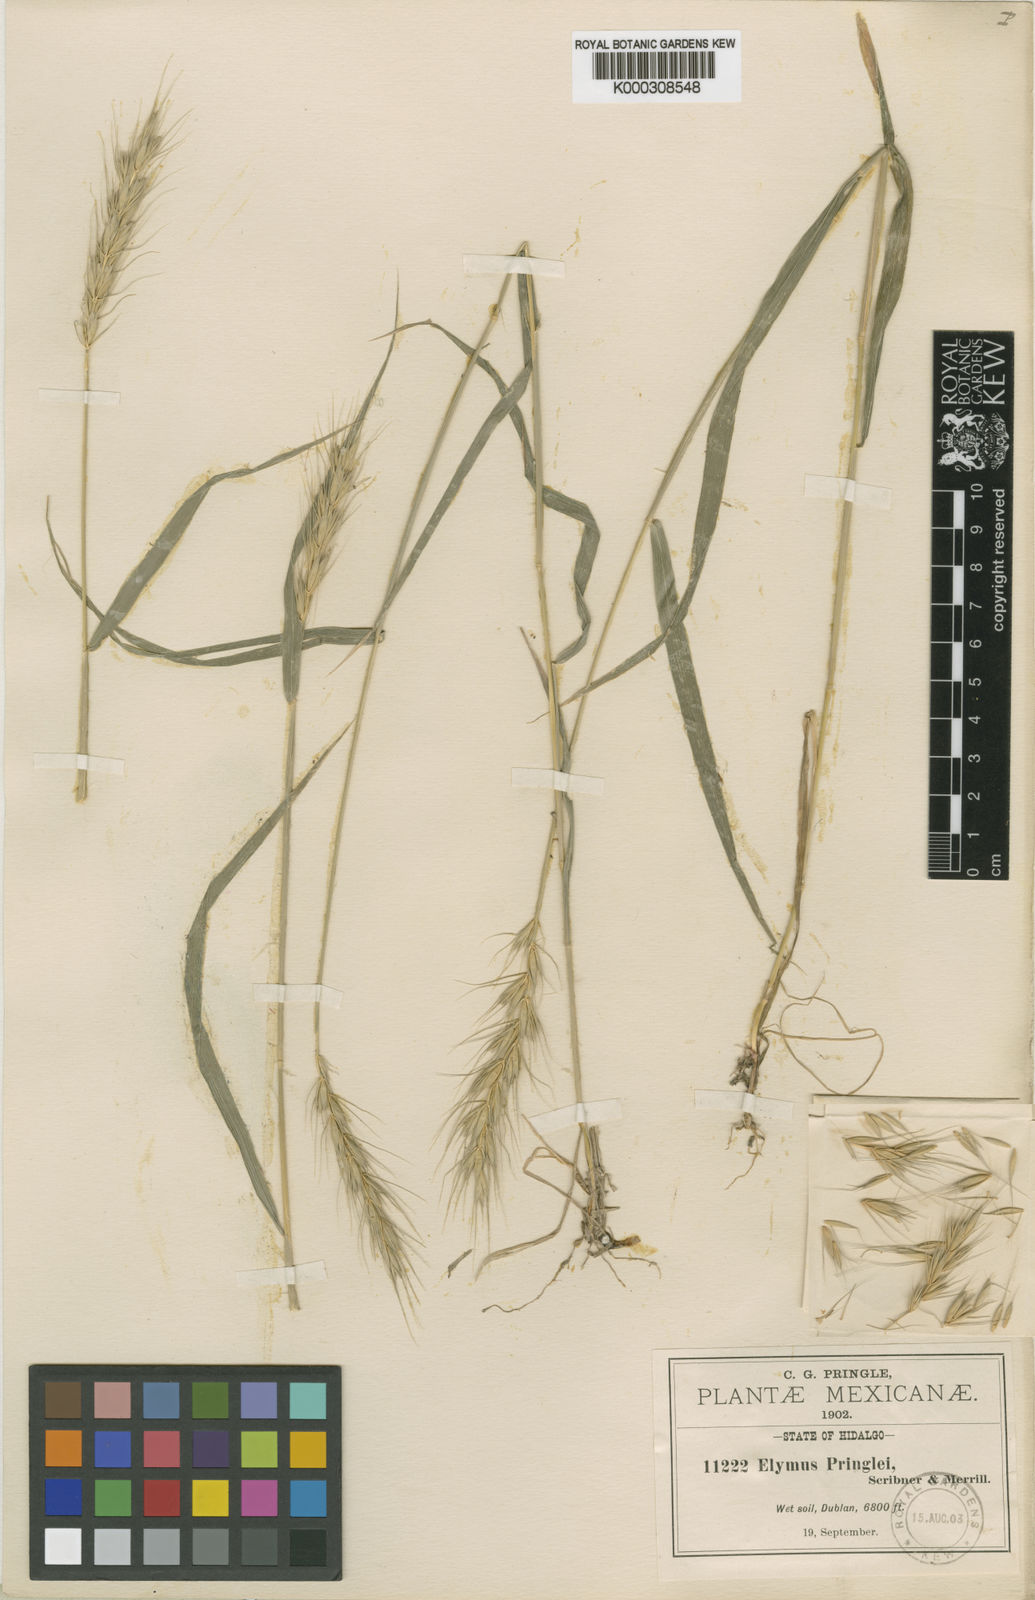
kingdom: Plantae
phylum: Tracheophyta
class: Liliopsida
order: Poales
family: Poaceae
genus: Elymus
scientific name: Elymus violaceus
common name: Arctic wheatgrass
